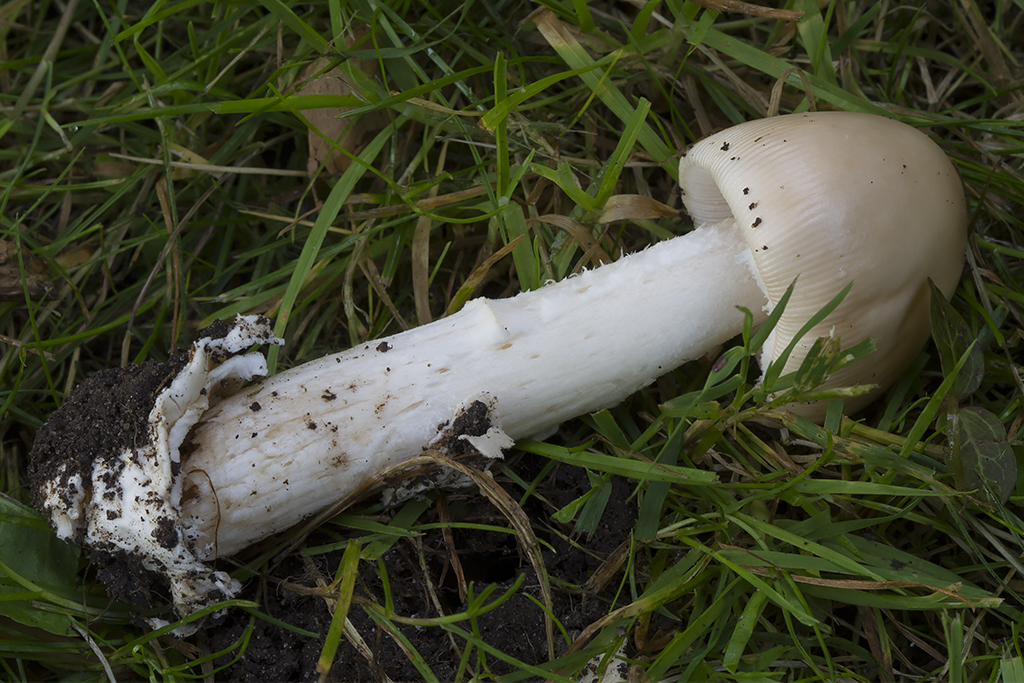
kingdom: Fungi
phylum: Basidiomycota
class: Agaricomycetes
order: Agaricales
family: Amanitaceae
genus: Amanita
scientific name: Amanita lividopallescens
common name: afblegende kam-fluesvamp
